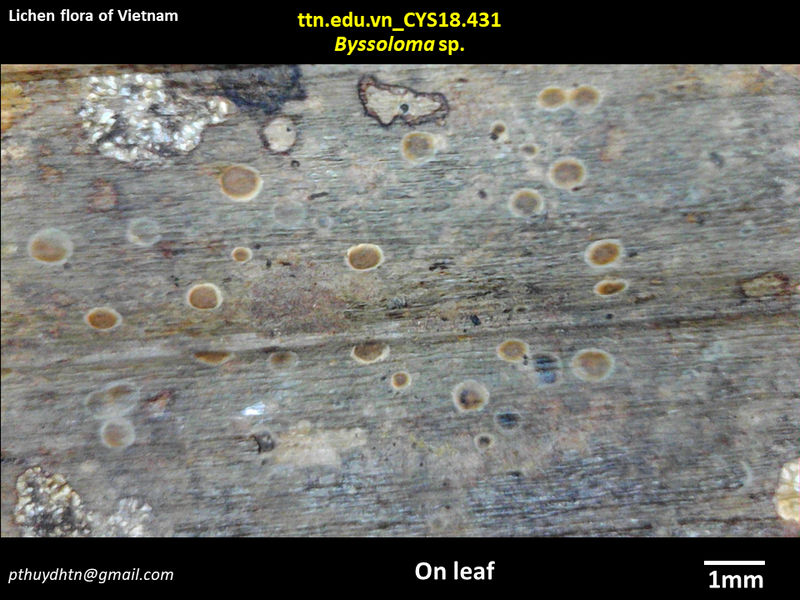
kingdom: Fungi
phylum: Ascomycota
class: Lecanoromycetes
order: Lecanorales
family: Byssolomataceae
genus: Byssoloma
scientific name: Byssoloma
